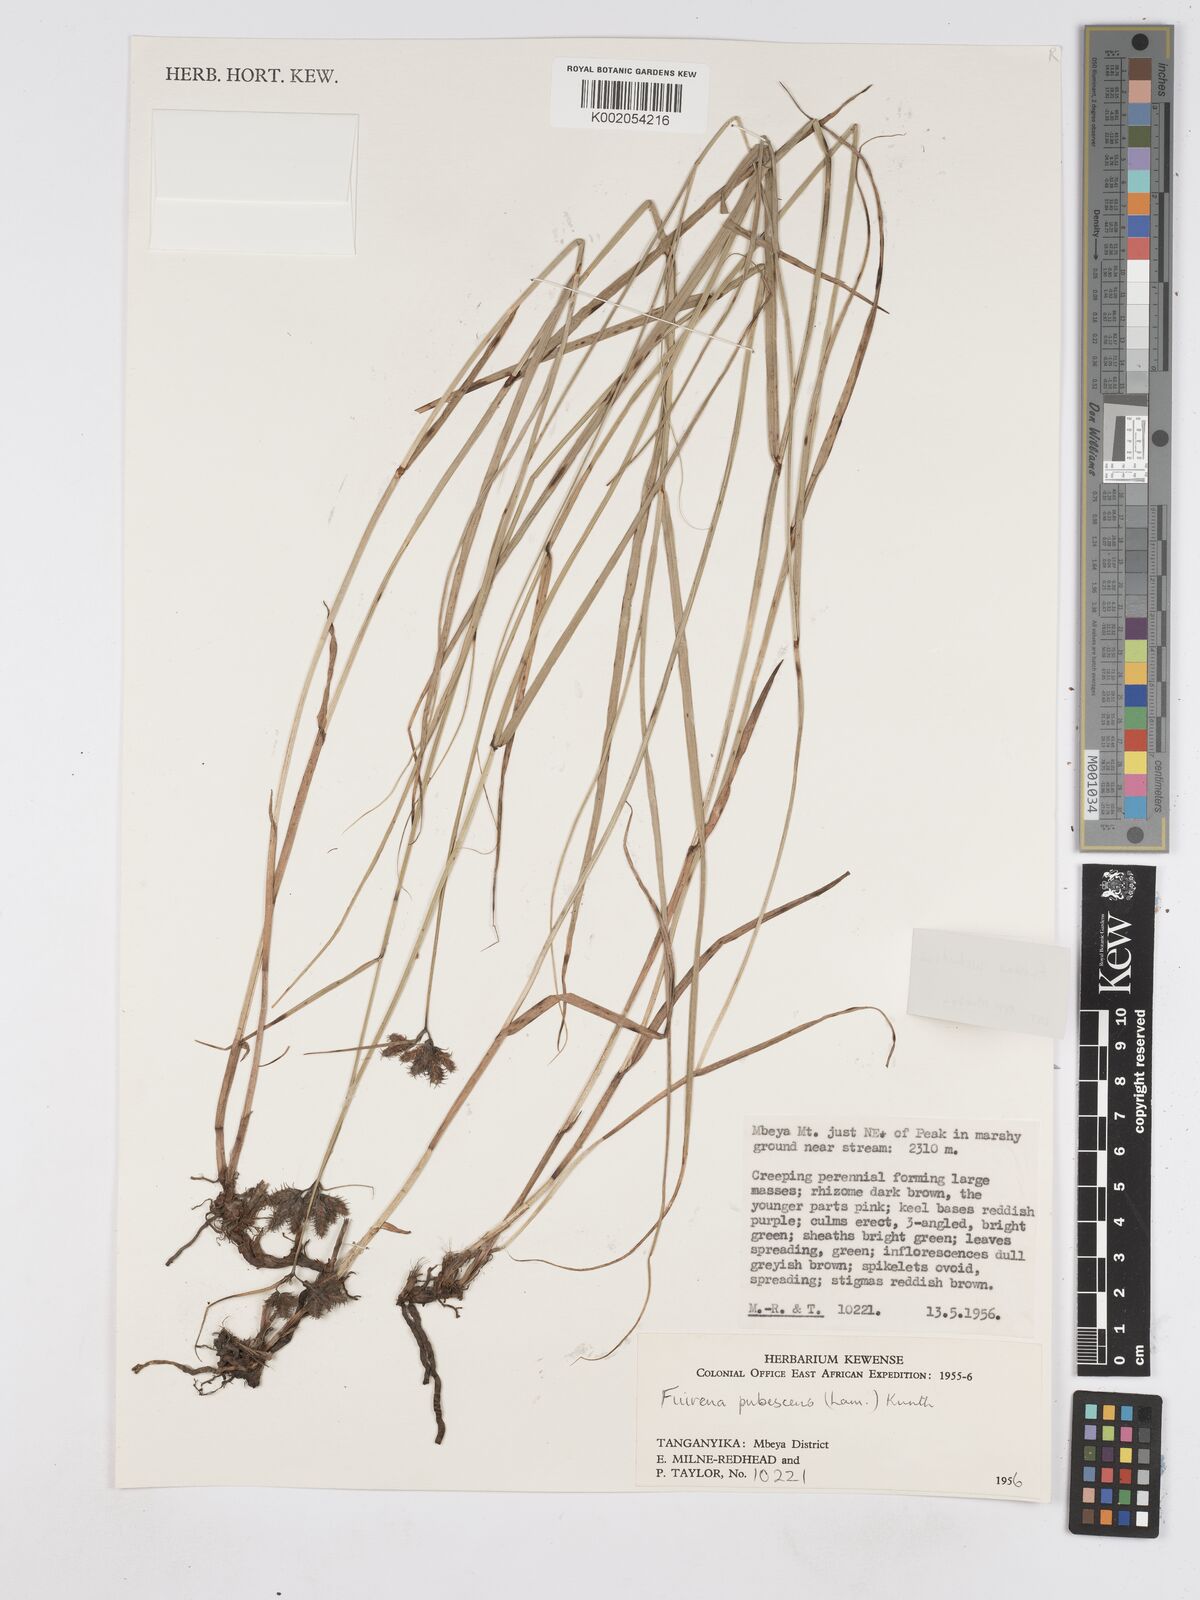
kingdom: Plantae
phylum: Tracheophyta
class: Liliopsida
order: Poales
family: Cyperaceae
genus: Fuirena
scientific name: Fuirena welwitschii
